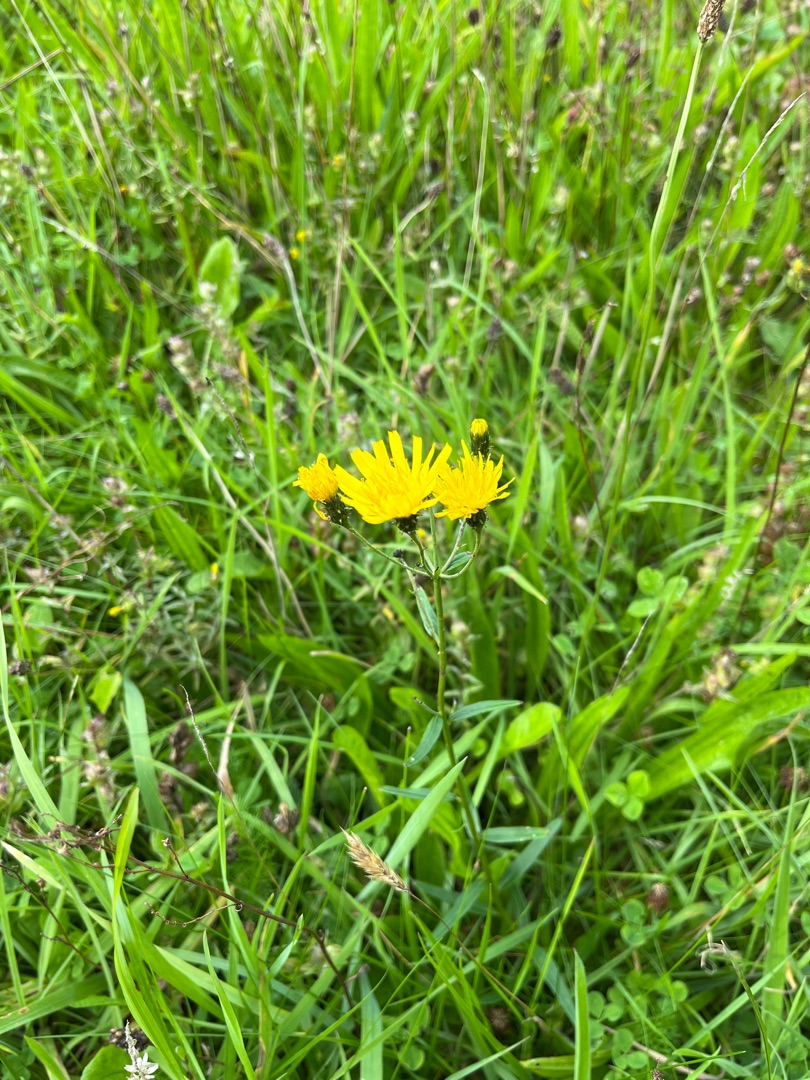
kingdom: Plantae
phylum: Tracheophyta
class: Magnoliopsida
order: Asterales
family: Asteraceae
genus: Hieracium
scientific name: Hieracium umbellatum
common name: Smalbladet høgeurt
